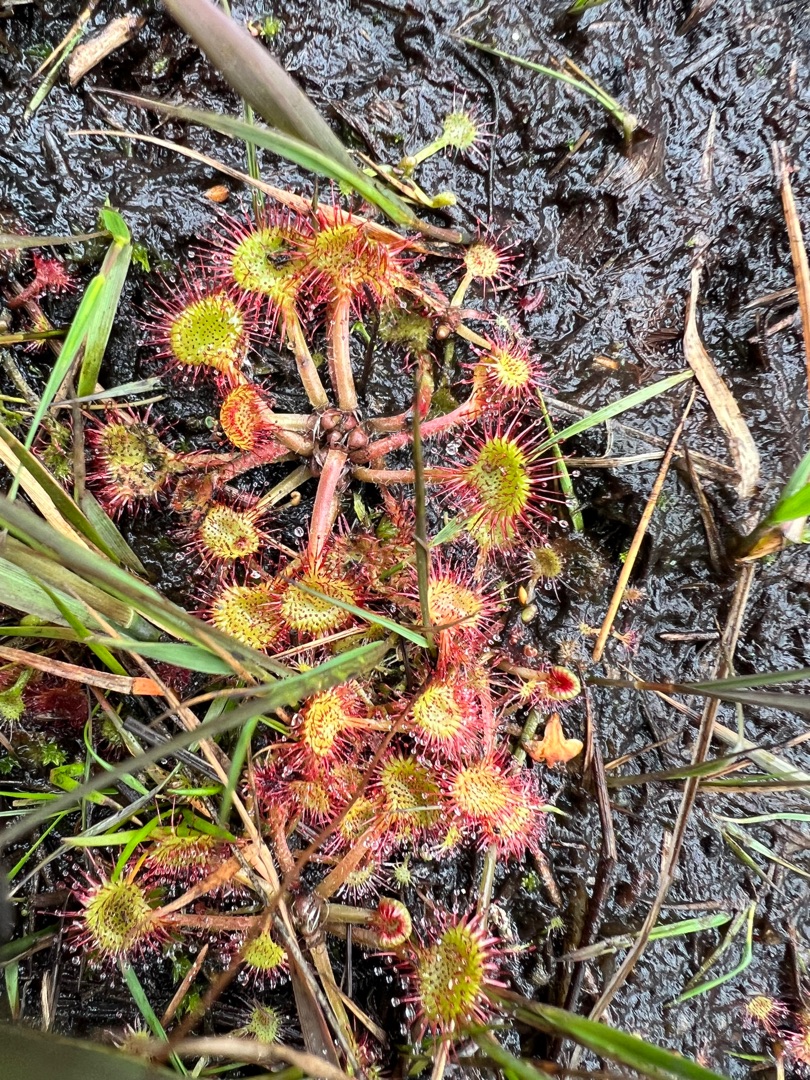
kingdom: Plantae
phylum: Tracheophyta
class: Magnoliopsida
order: Caryophyllales
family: Droseraceae
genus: Drosera
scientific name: Drosera rotundifolia
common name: Rundbladet soldug
